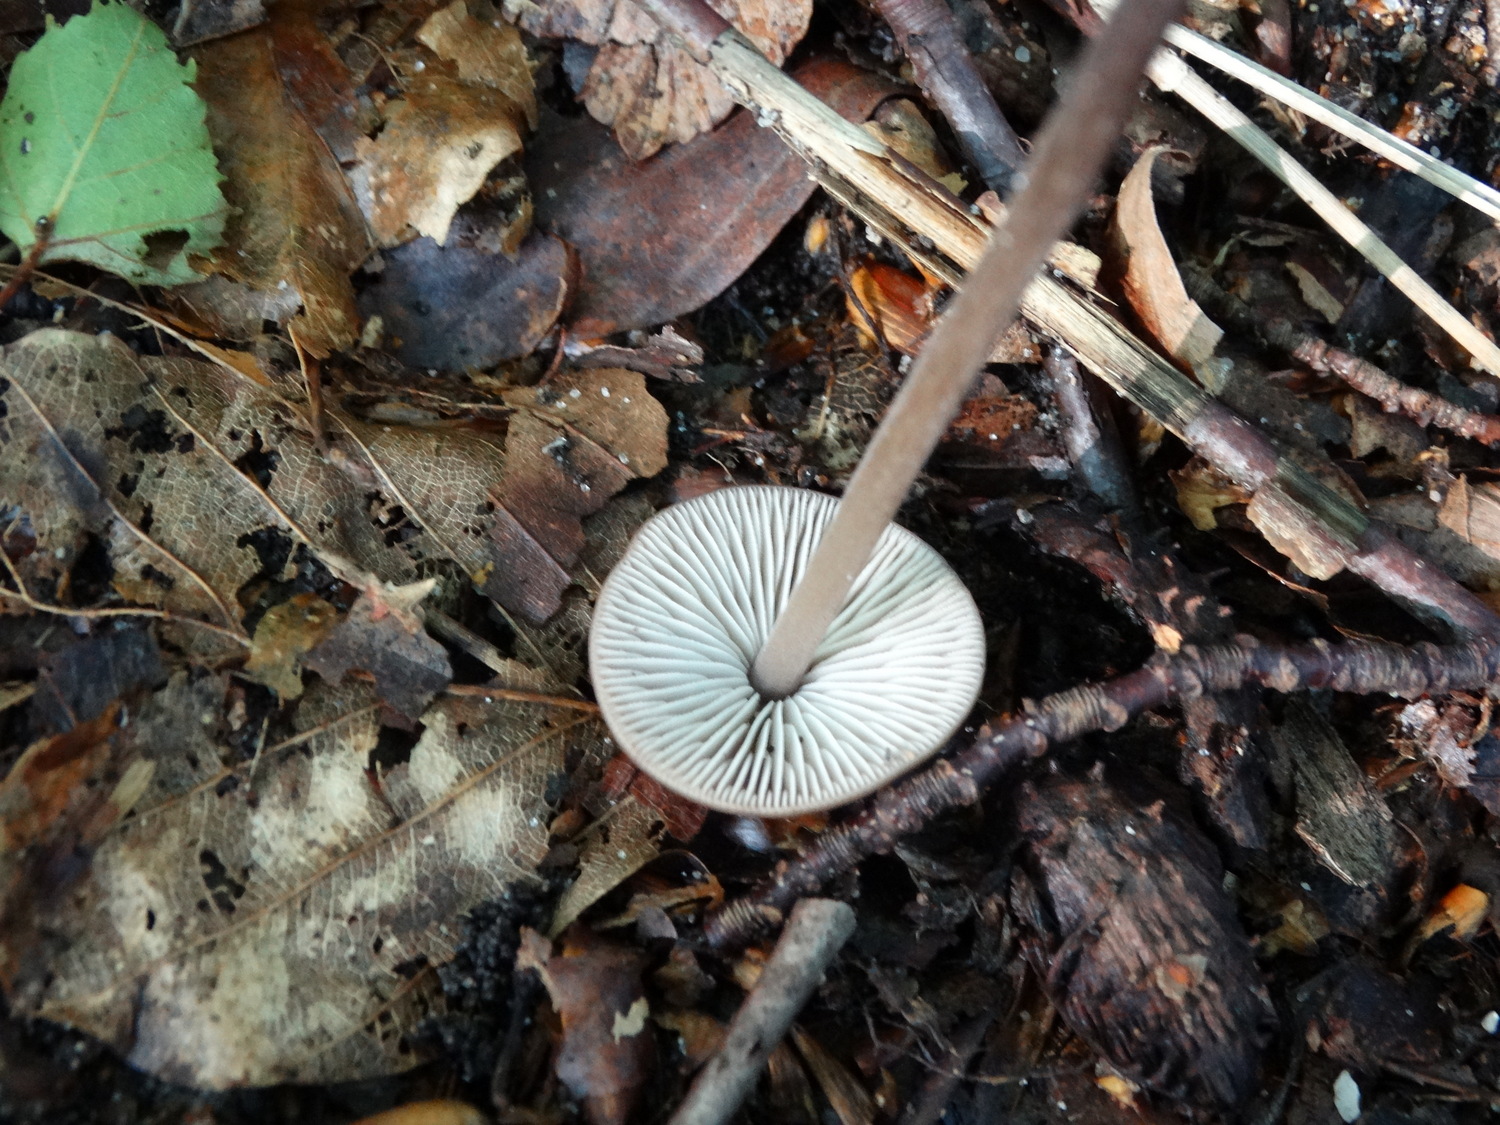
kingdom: Fungi
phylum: Basidiomycota
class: Agaricomycetes
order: Agaricales
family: Omphalotaceae
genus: Mycetinis
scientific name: Mycetinis alliaceus
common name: stor løghat
